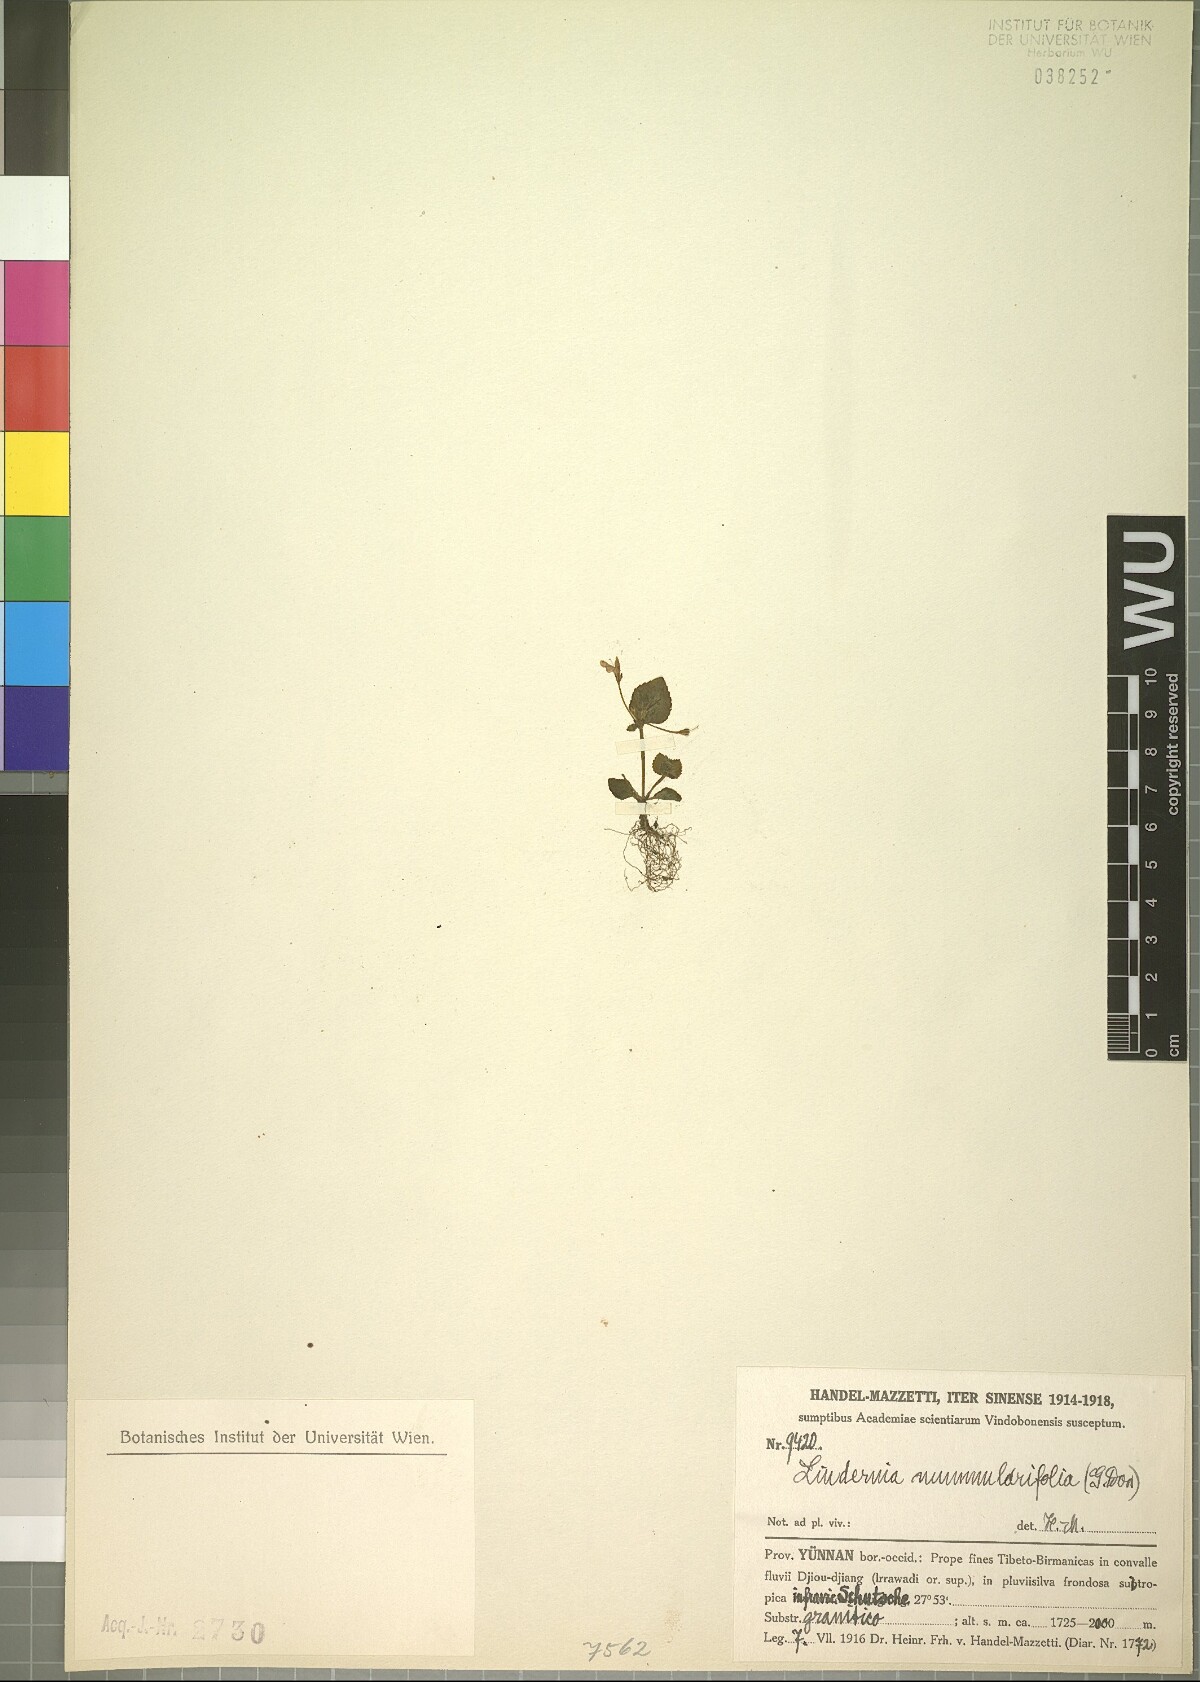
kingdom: Plantae
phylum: Tracheophyta
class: Magnoliopsida
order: Lamiales
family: Linderniaceae
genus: Craterostigma
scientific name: Craterostigma nummulariifolium
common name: False pimpernel
